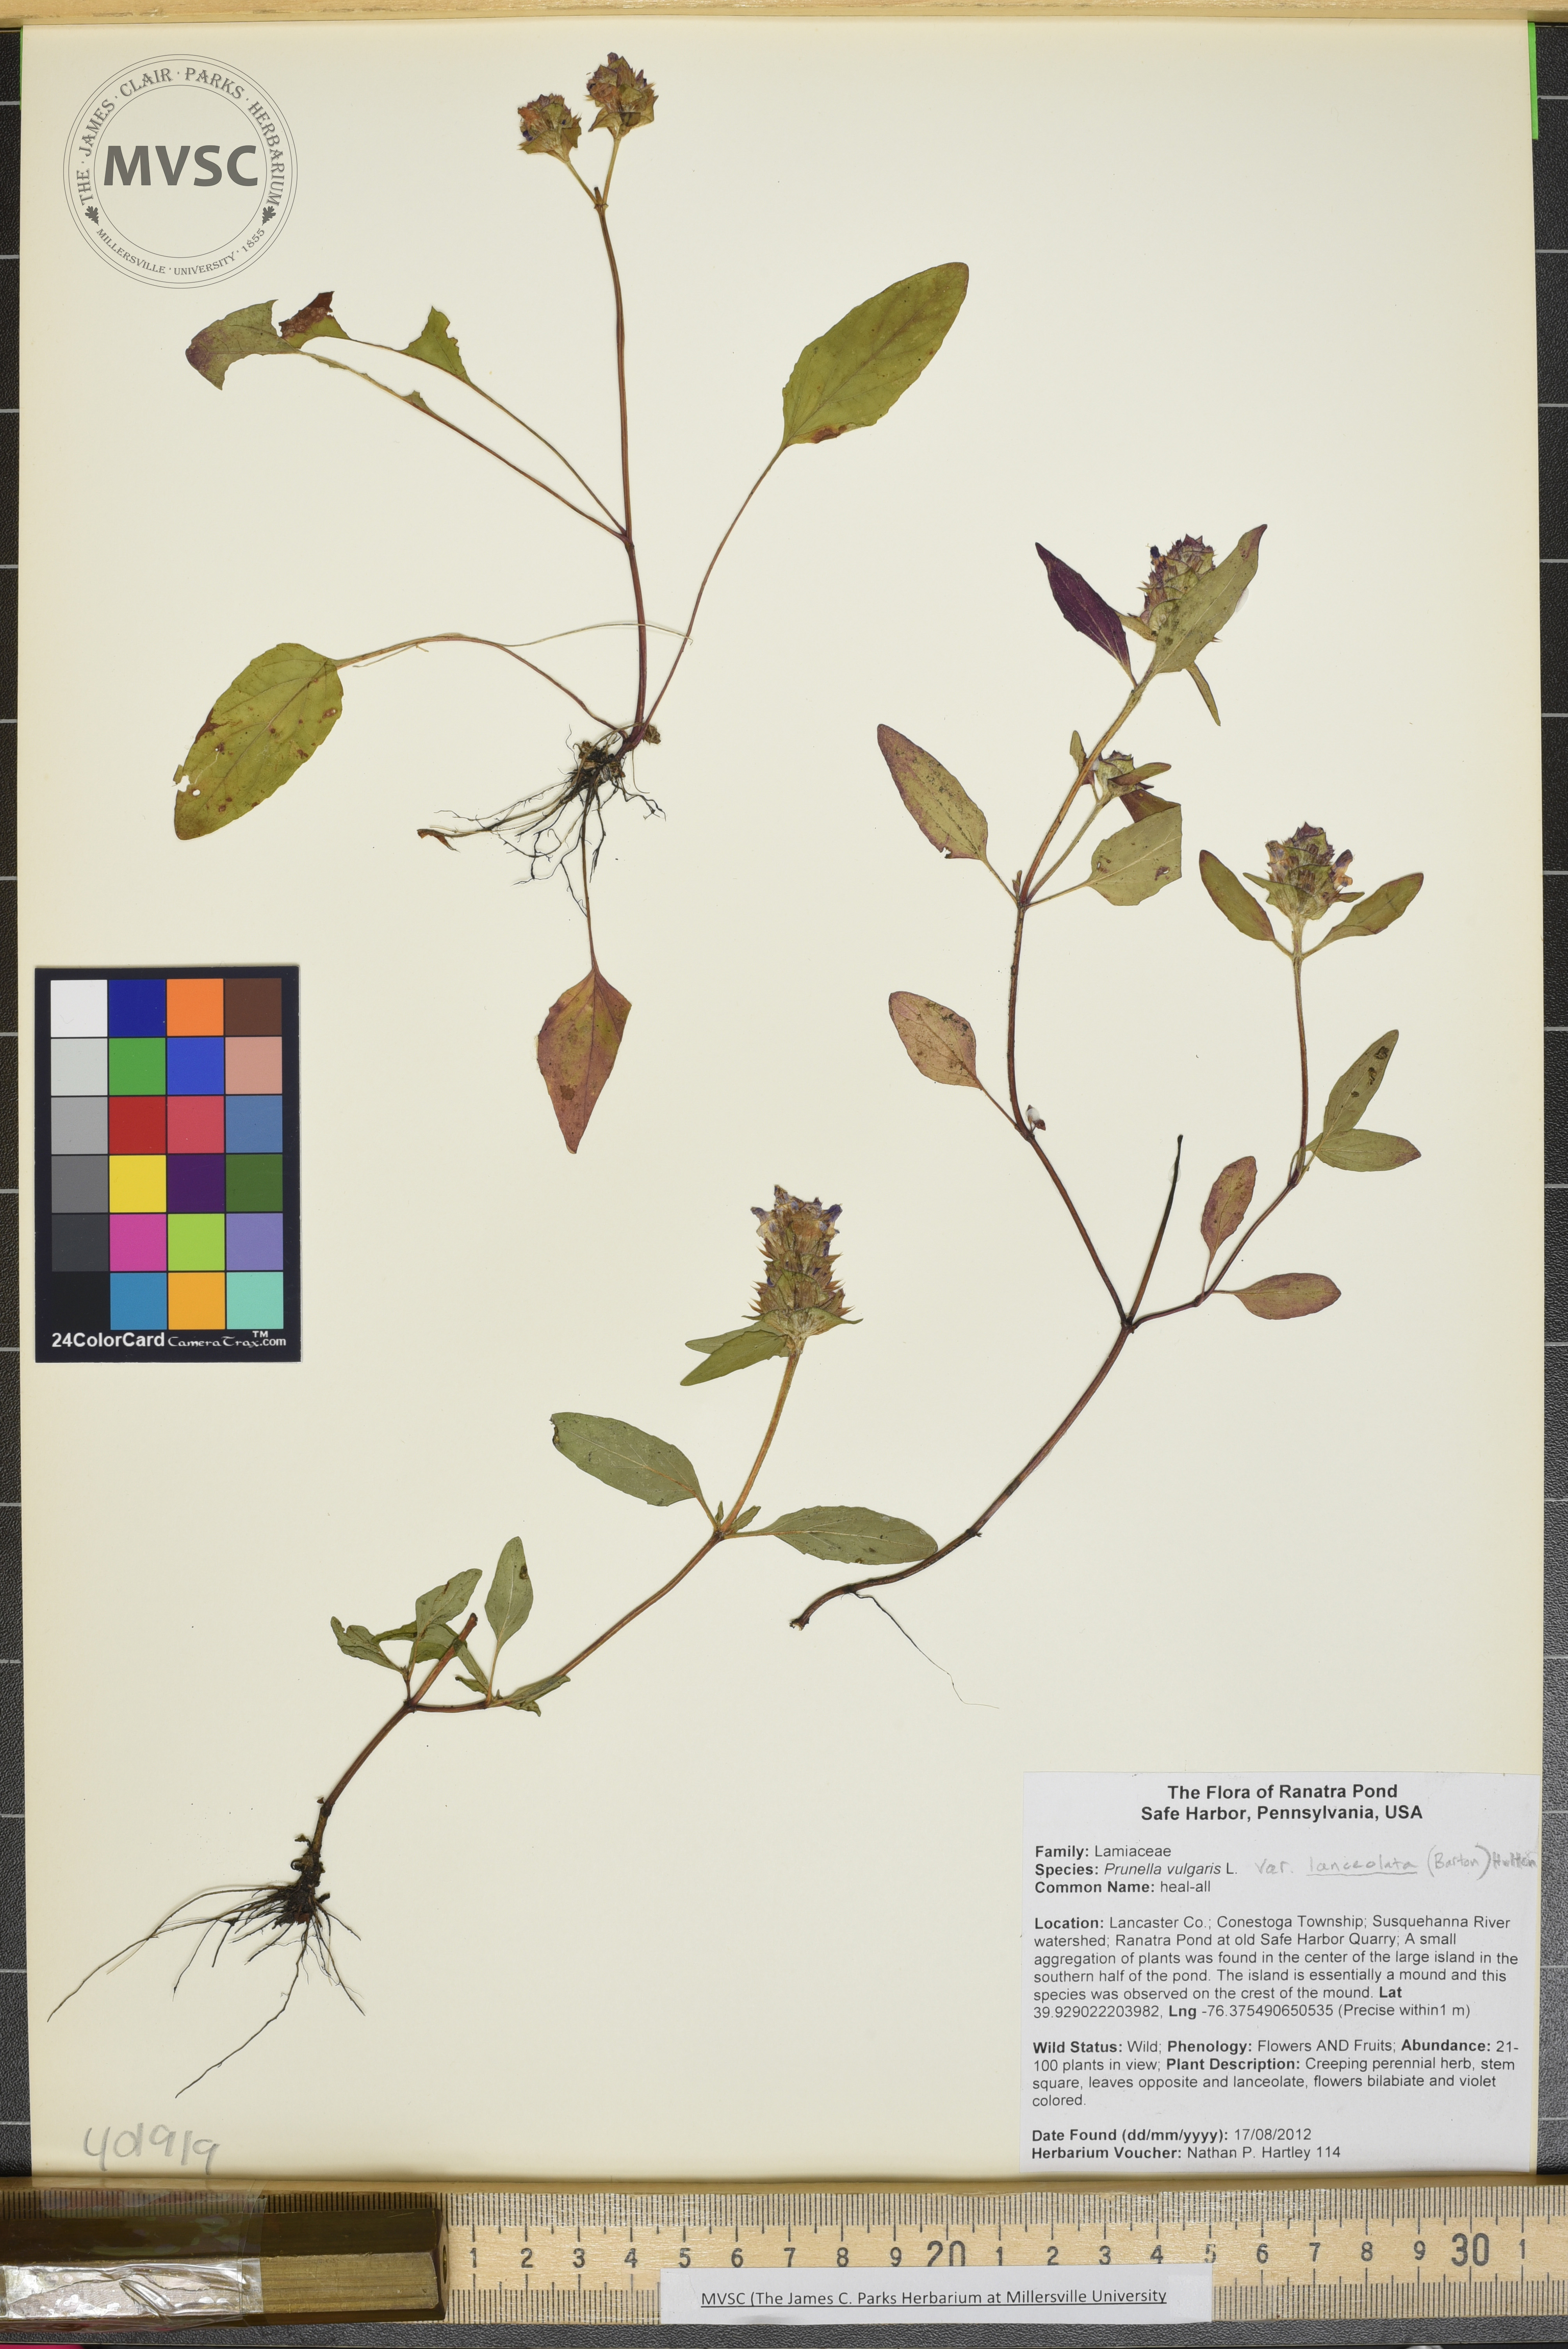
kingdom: Plantae
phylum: Tracheophyta
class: Magnoliopsida
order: Lamiales
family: Lamiaceae
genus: Prunella
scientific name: Prunella vulgaris
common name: Heal-all
